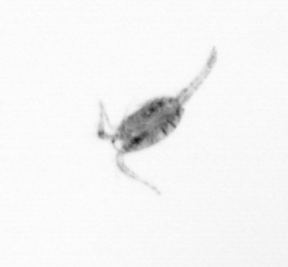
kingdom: Animalia
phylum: Arthropoda
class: Copepoda
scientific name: Copepoda
